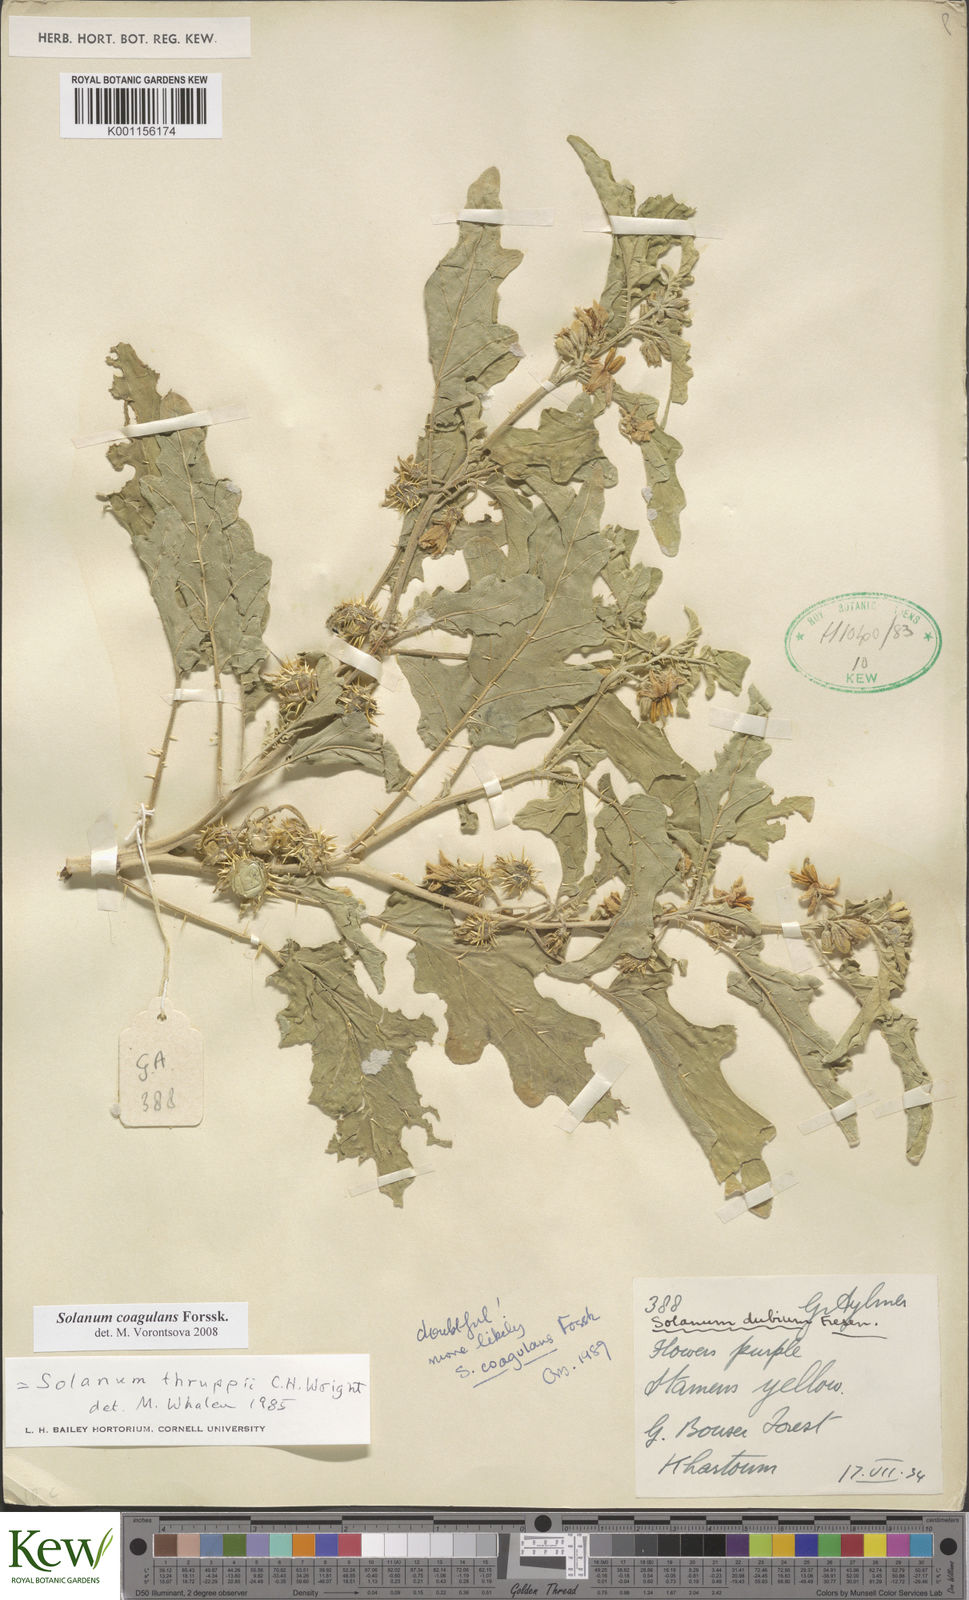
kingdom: Plantae
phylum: Tracheophyta
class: Magnoliopsida
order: Solanales
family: Solanaceae
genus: Solanum
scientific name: Solanum coagulans
